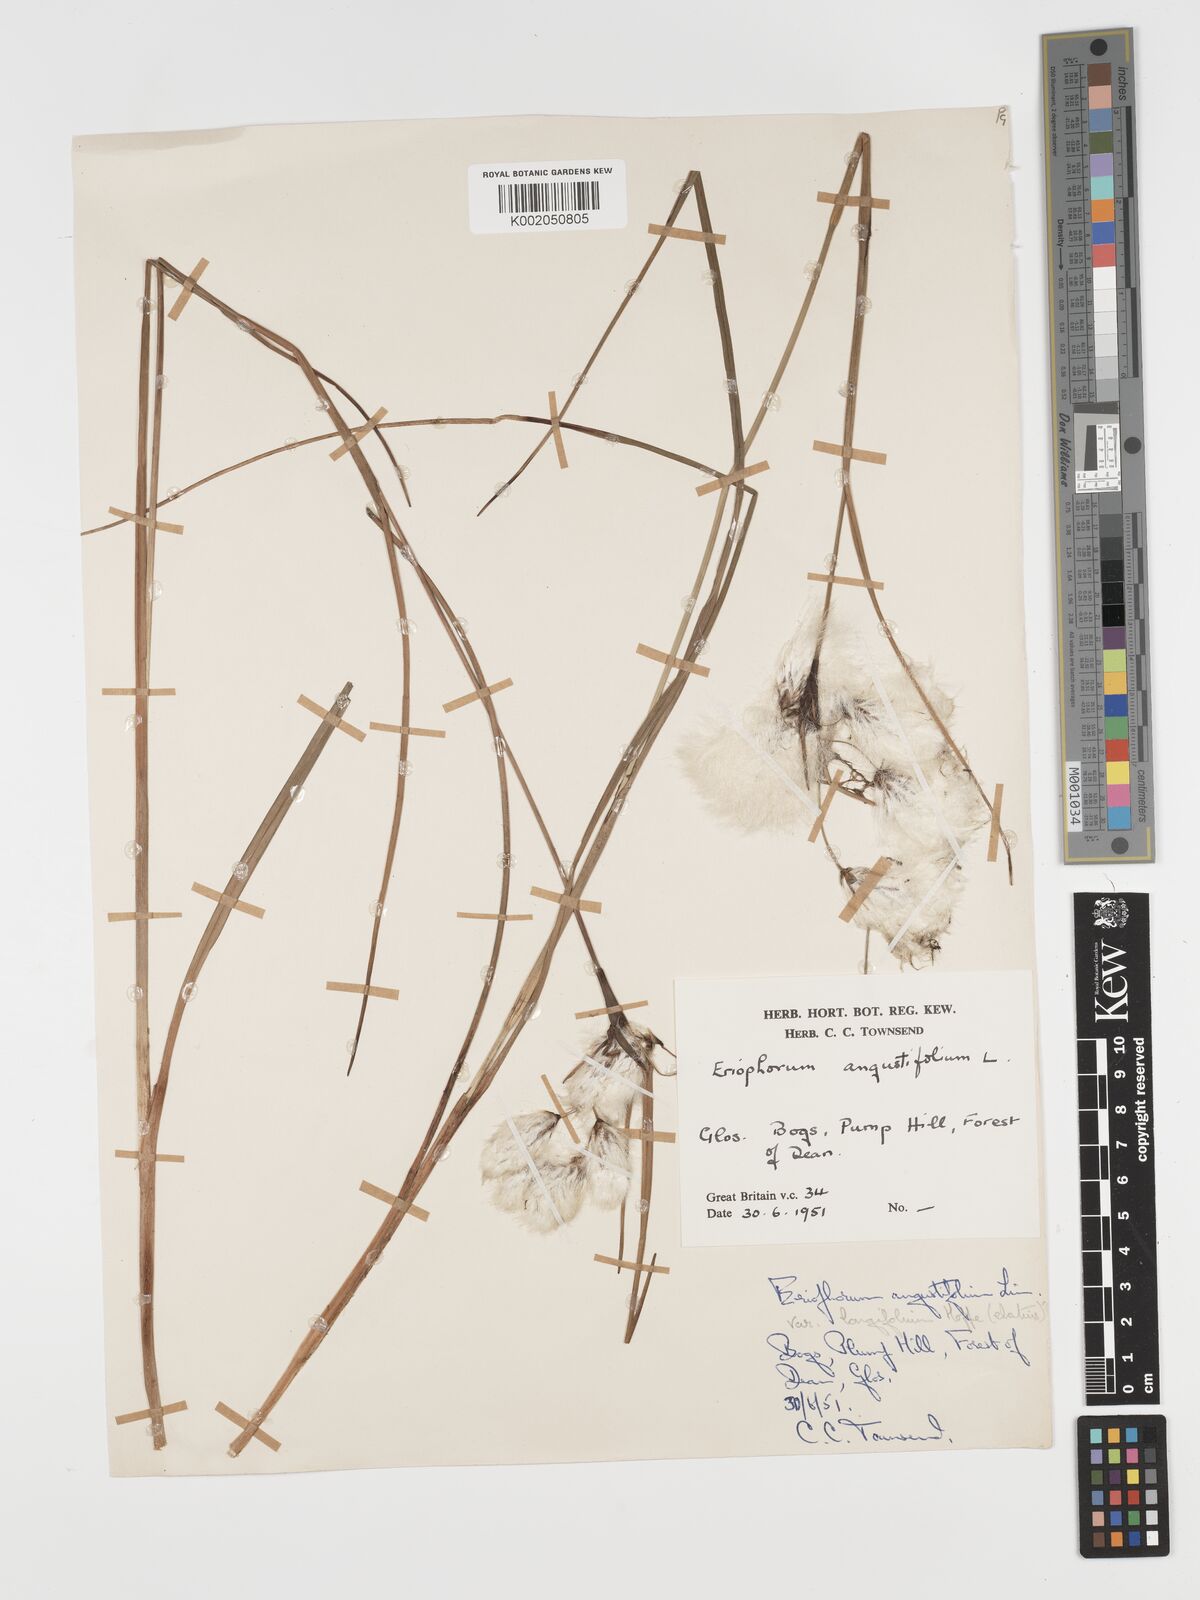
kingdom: Plantae
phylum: Tracheophyta
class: Liliopsida
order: Poales
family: Cyperaceae
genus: Eriophorum
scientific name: Eriophorum angustifolium
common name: Common cottongrass
